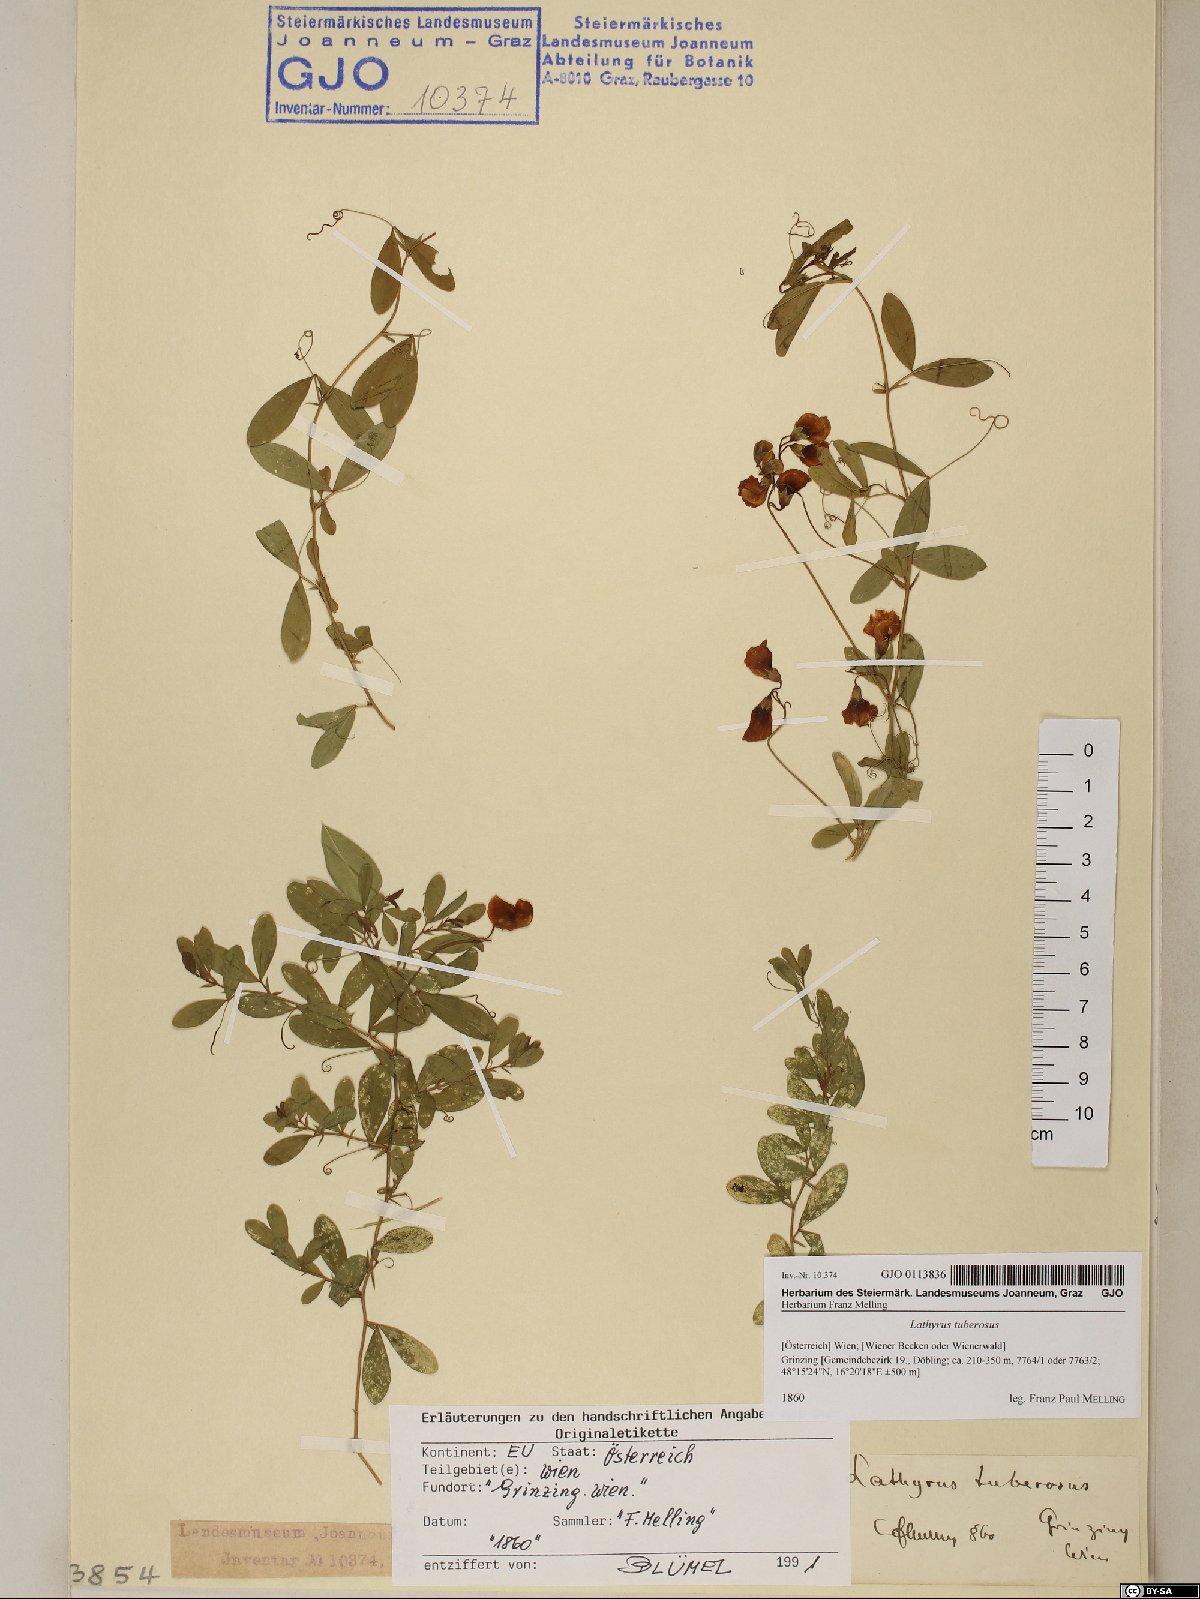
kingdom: Plantae
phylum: Tracheophyta
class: Magnoliopsida
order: Fabales
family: Fabaceae
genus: Lathyrus
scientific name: Lathyrus tuberosus
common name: Tuberous pea
